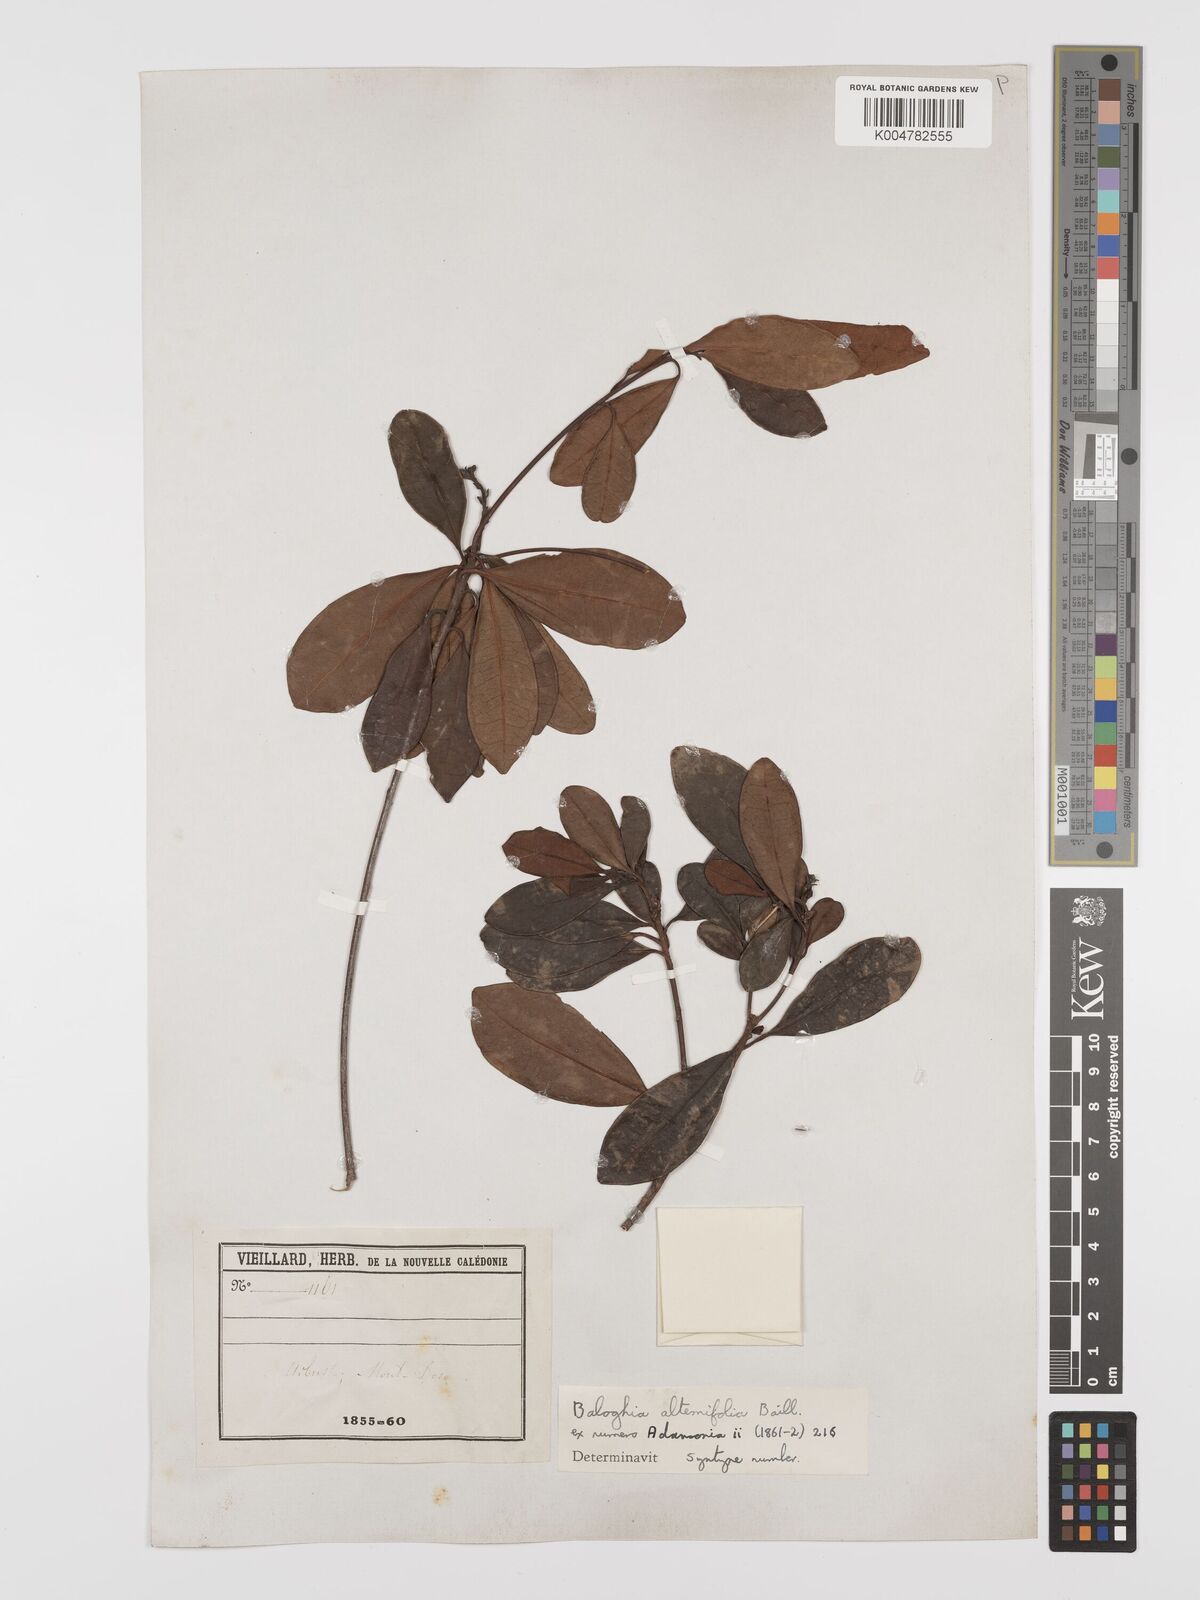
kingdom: Plantae
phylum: Tracheophyta
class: Magnoliopsida
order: Malpighiales
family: Euphorbiaceae
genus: Baloghia
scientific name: Baloghia alternifolia
